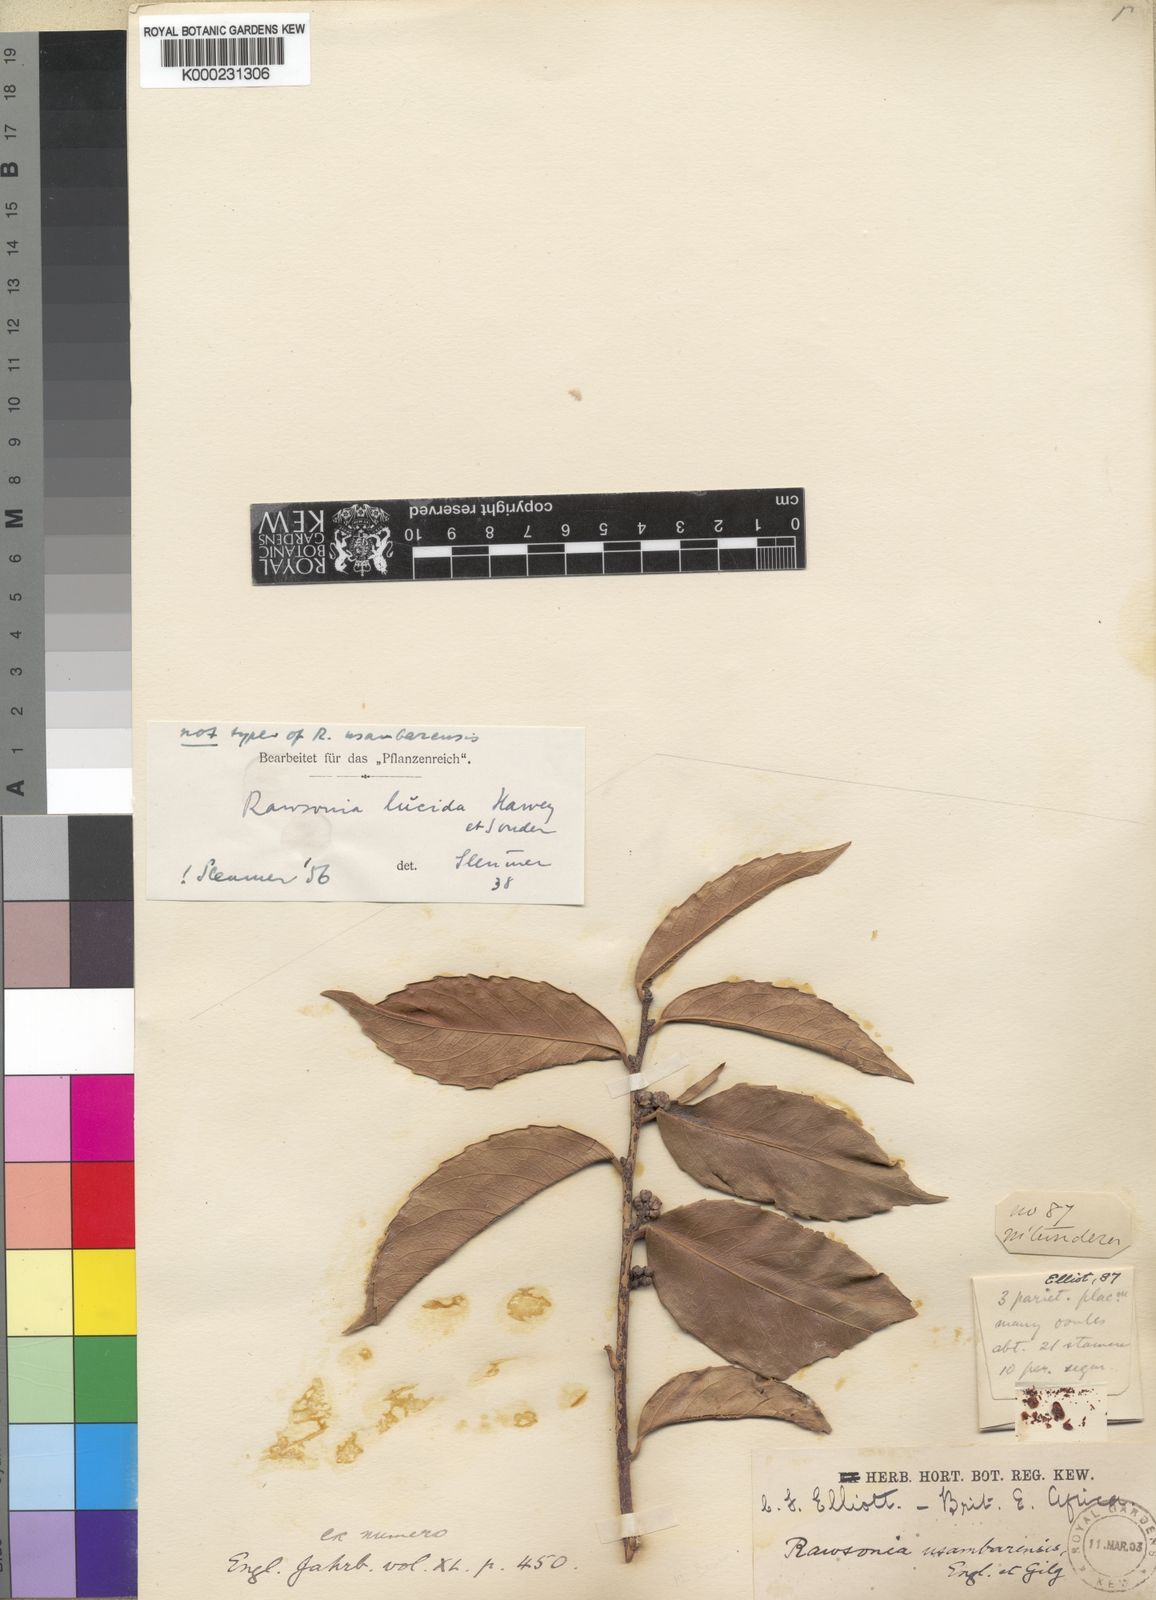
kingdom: Plantae
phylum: Tracheophyta
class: Magnoliopsida
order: Malpighiales
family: Achariaceae
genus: Rawsonia
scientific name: Rawsonia lucida
